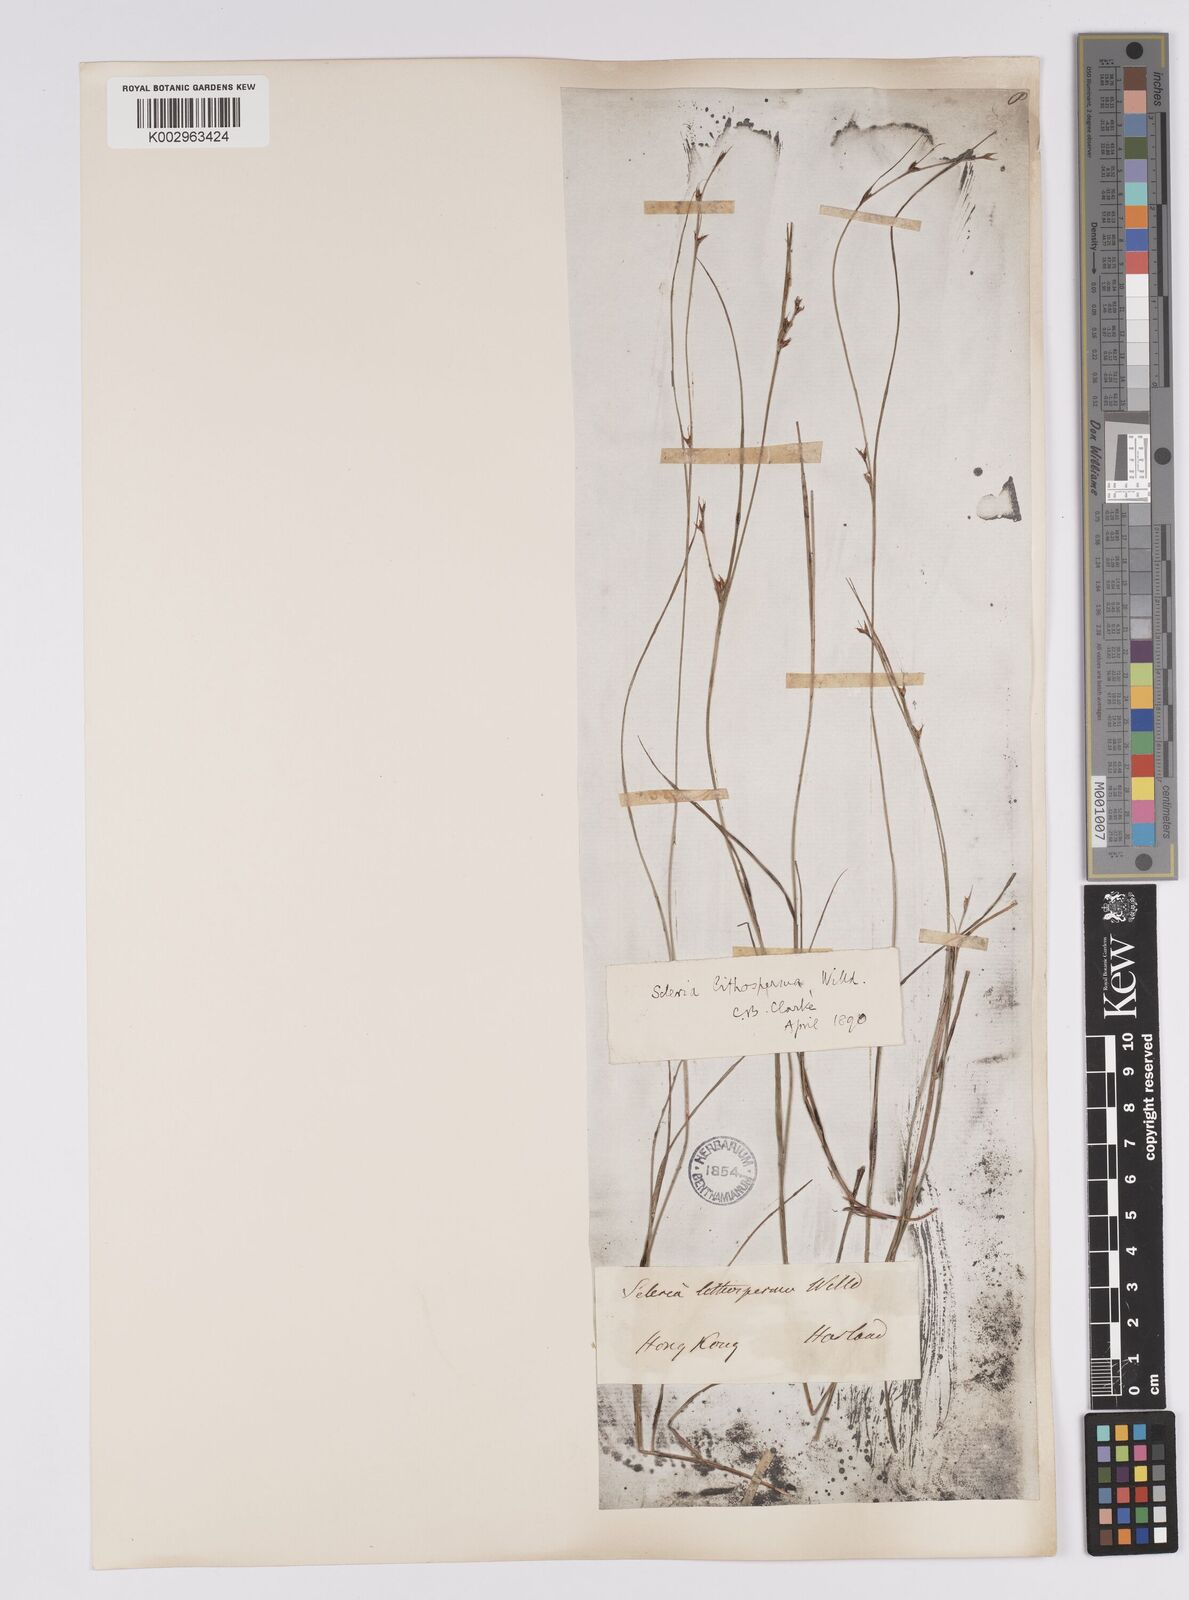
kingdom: Plantae
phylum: Tracheophyta
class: Liliopsida
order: Poales
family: Cyperaceae
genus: Scleria
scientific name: Scleria lithosperma
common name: Florida keys nut-rush
